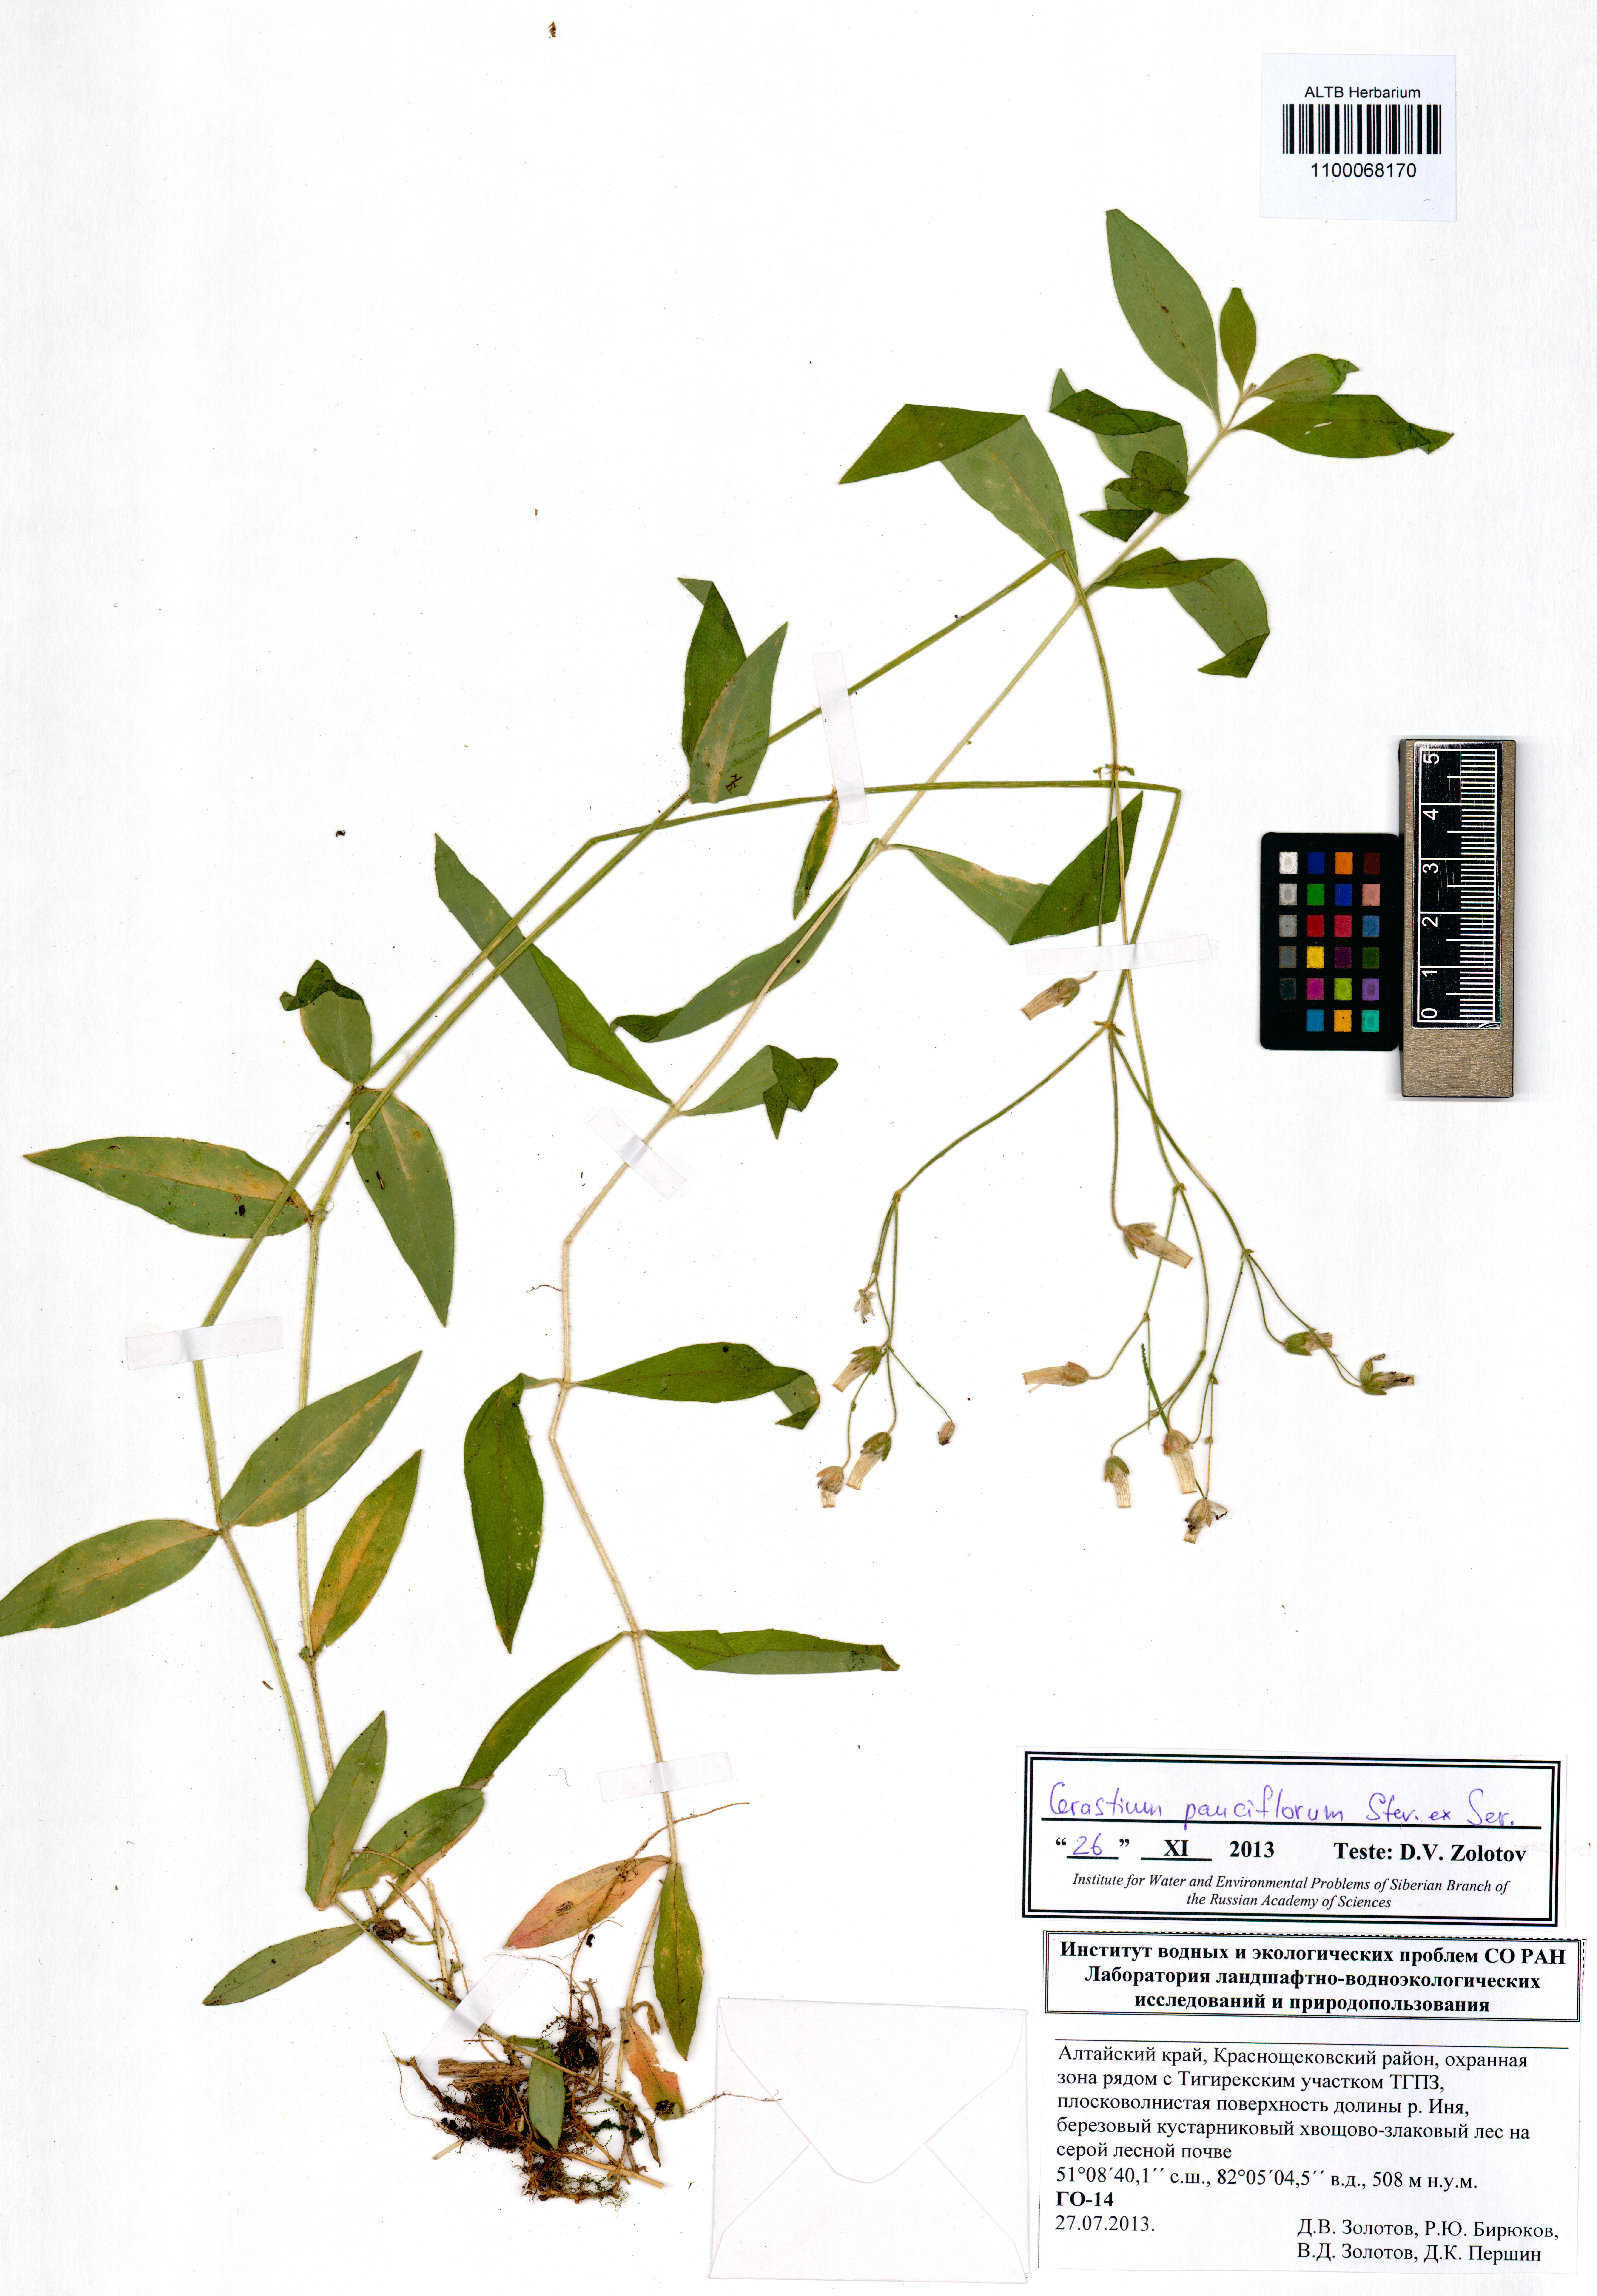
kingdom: Plantae
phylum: Tracheophyta
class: Magnoliopsida
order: Caryophyllales
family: Caryophyllaceae
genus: Cerastium
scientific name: Cerastium pauciflorum
